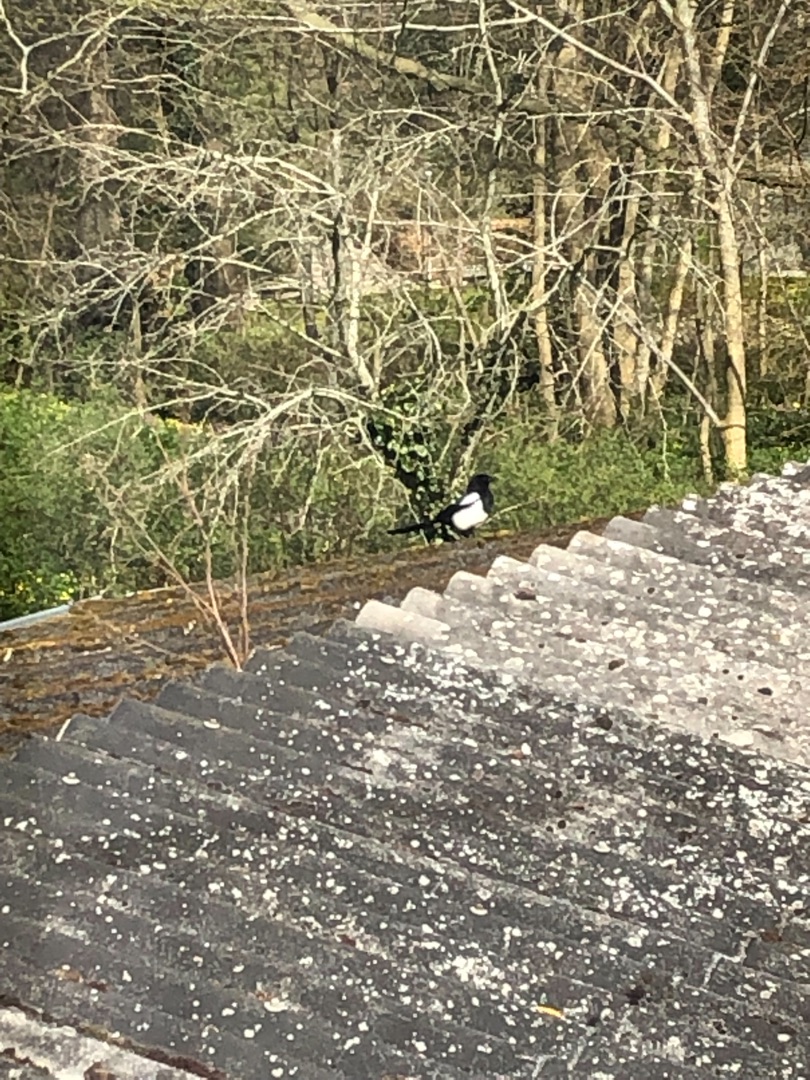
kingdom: Animalia
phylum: Chordata
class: Aves
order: Passeriformes
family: Corvidae
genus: Pica
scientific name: Pica pica
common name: Husskade
